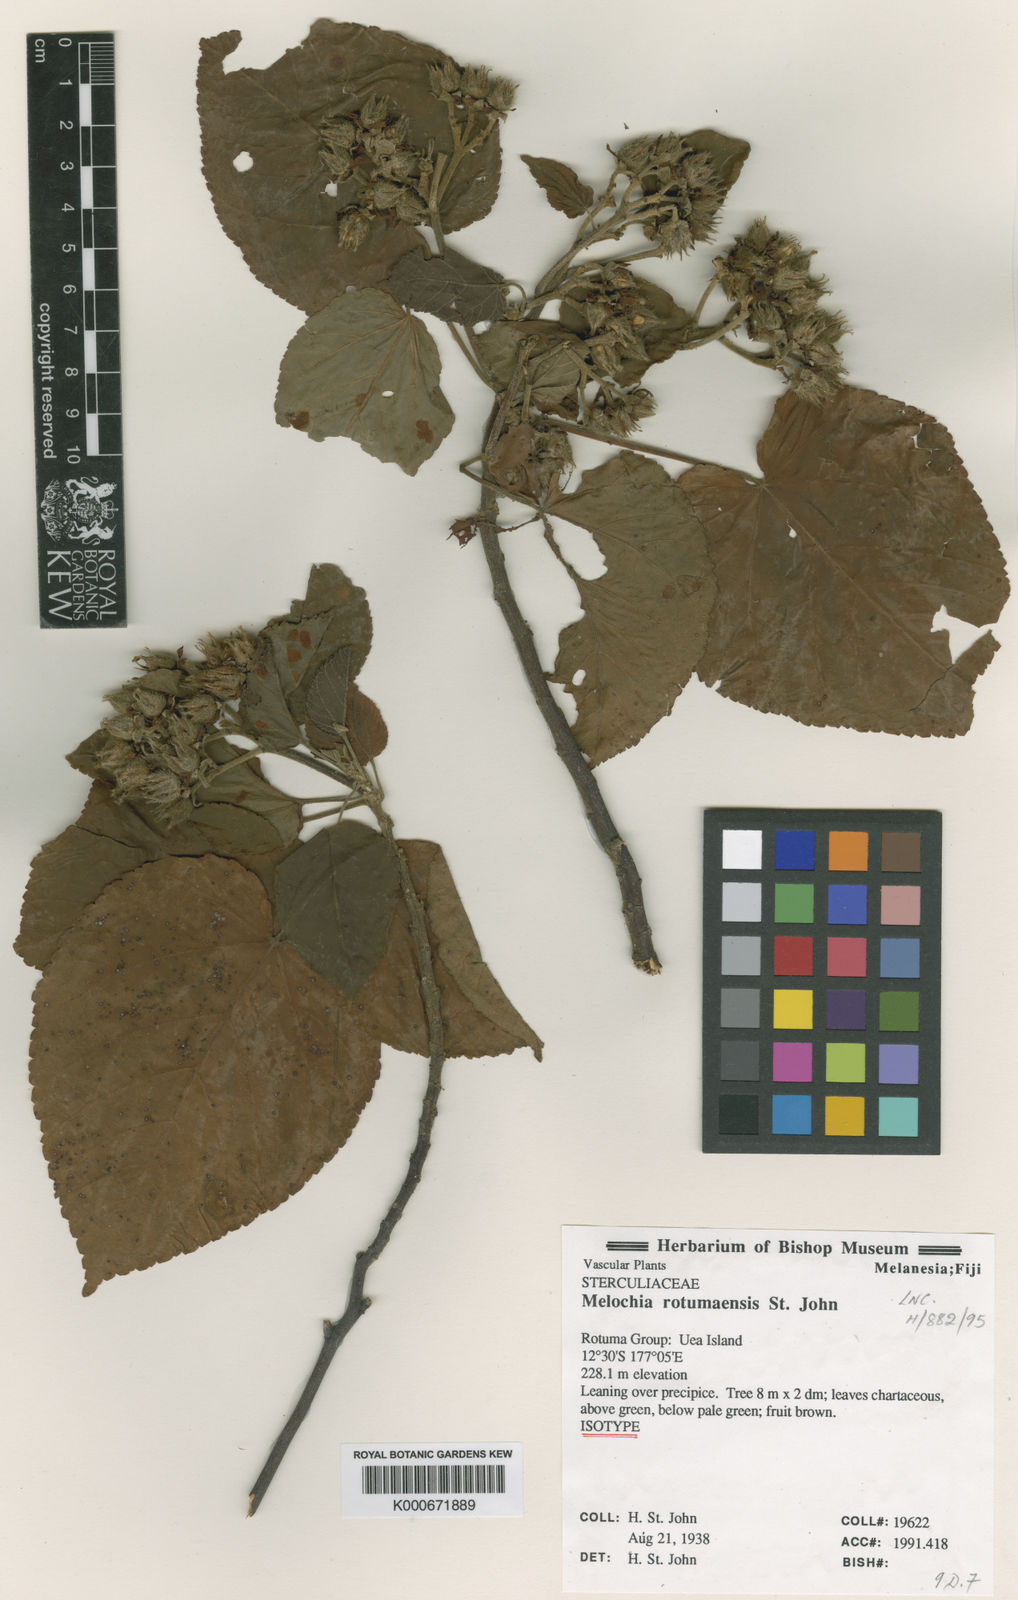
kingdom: Plantae
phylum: Tracheophyta
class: Magnoliopsida
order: Malvales
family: Malvaceae
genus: Melochia
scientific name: Melochia
